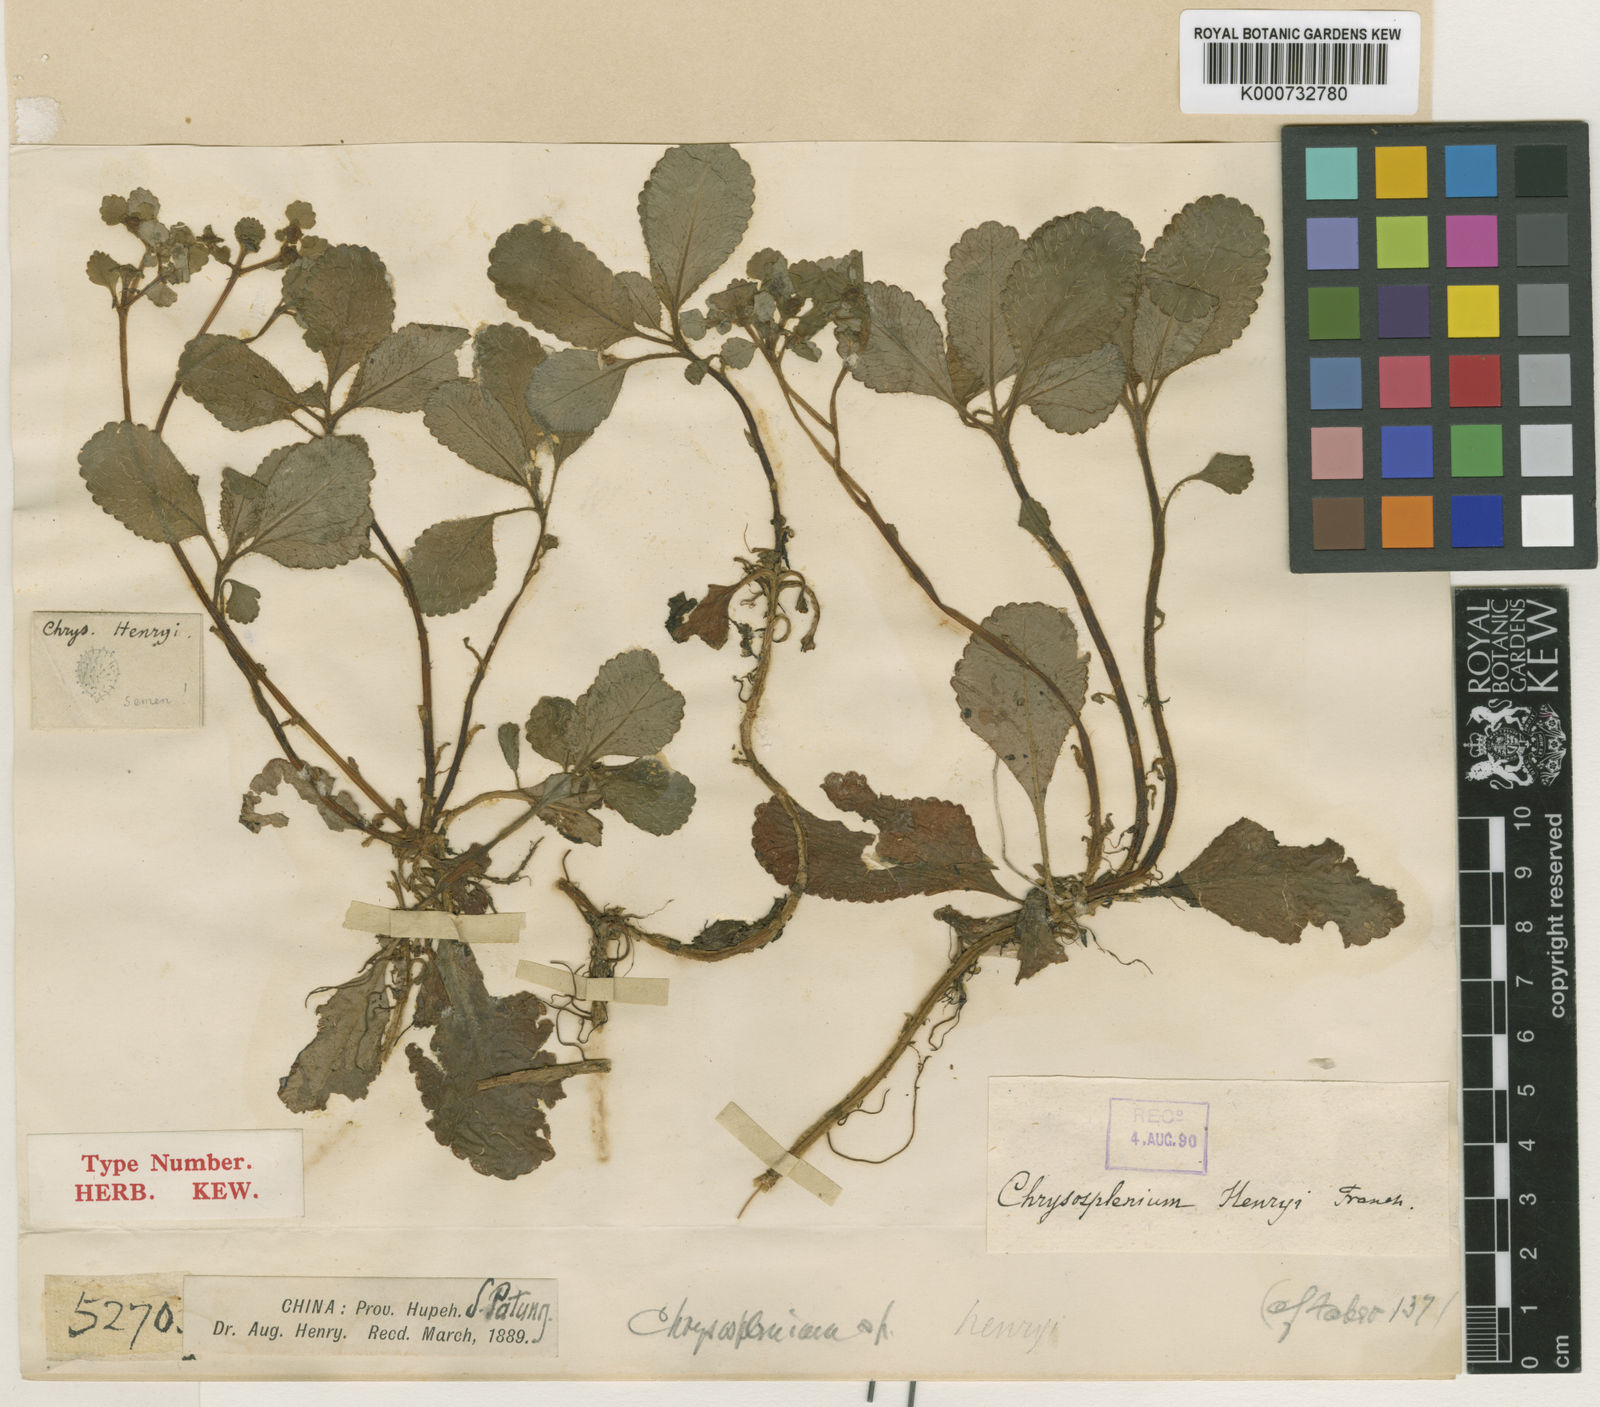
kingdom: Plantae
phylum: Tracheophyta
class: Magnoliopsida
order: Saxifragales
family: Saxifragaceae
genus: Chrysosplenium
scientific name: Chrysosplenium lanuginosum
